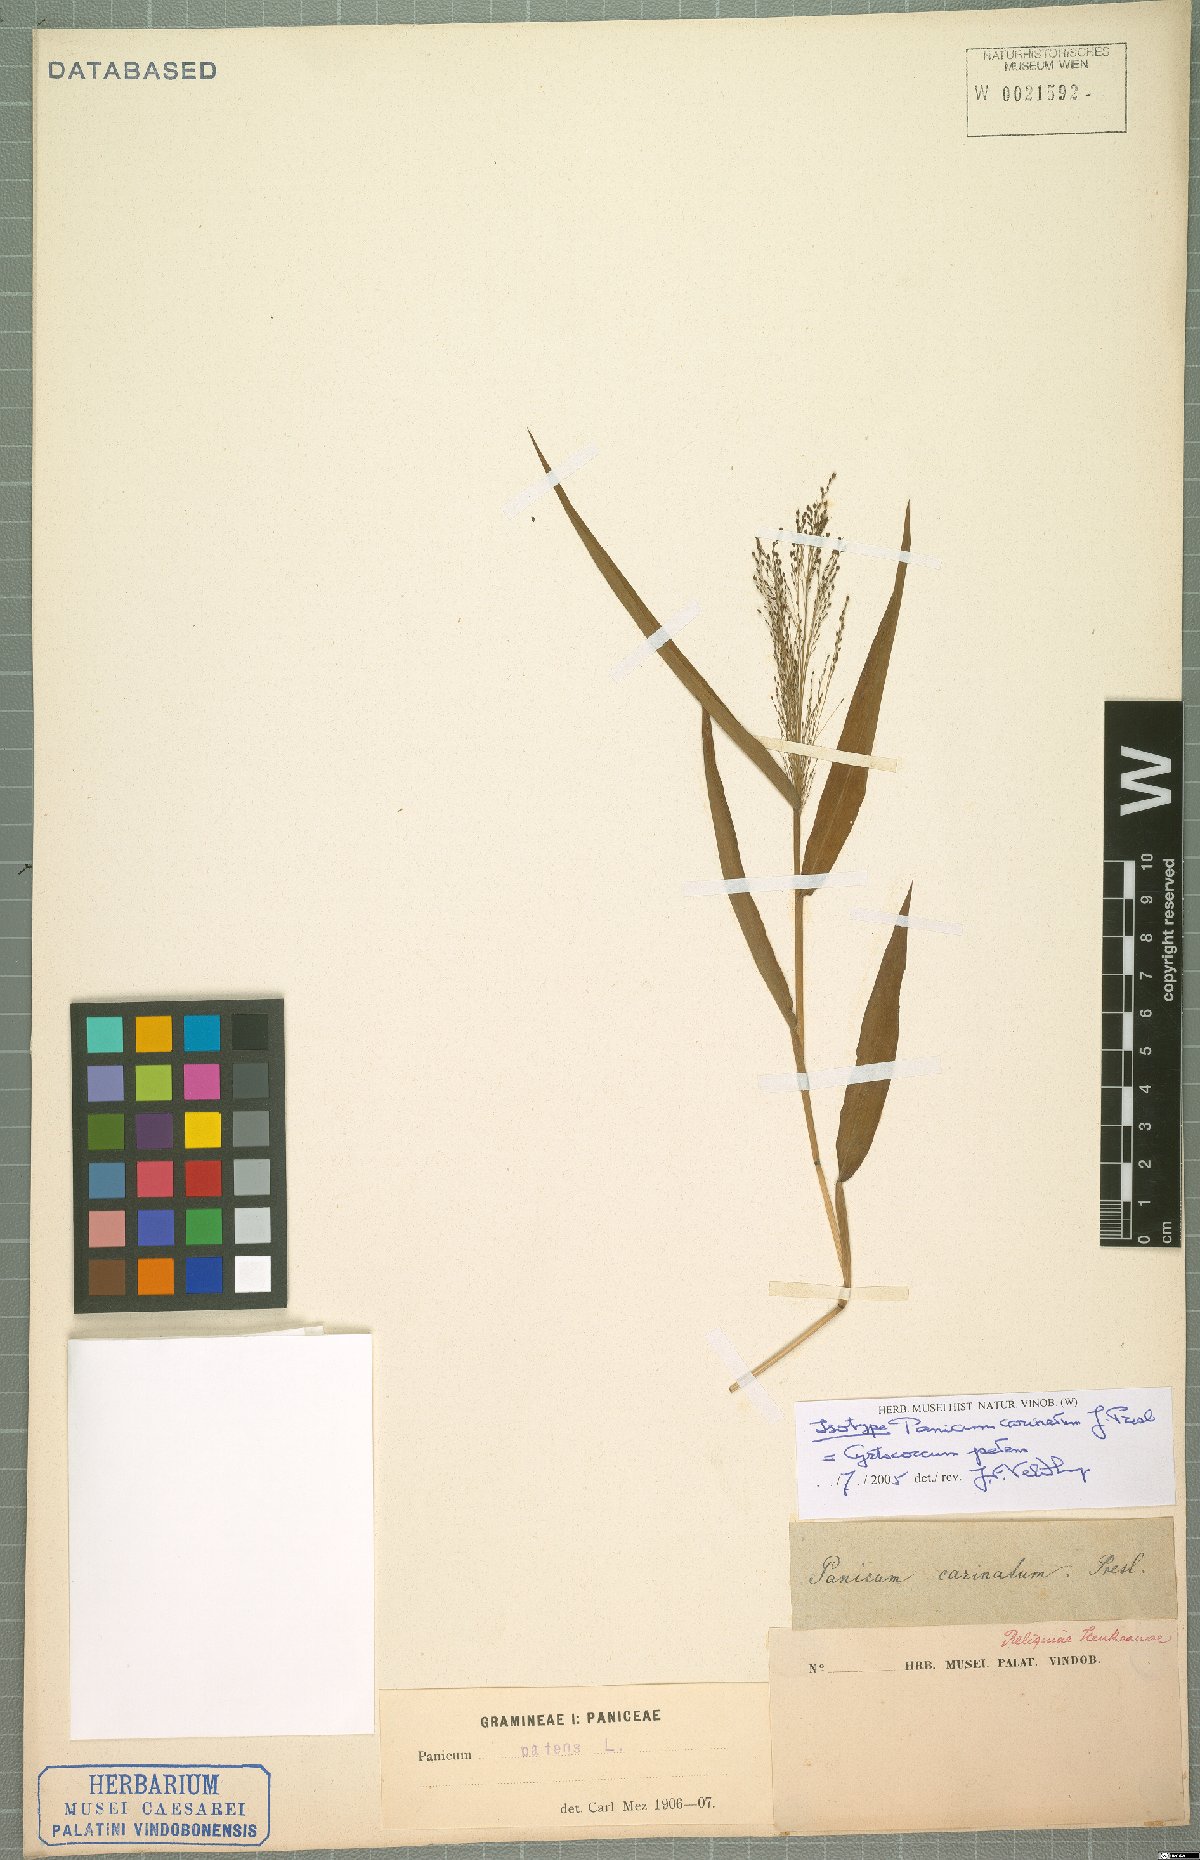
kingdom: Plantae
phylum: Tracheophyta
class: Liliopsida
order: Poales
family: Poaceae
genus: Cyrtococcum
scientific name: Cyrtococcum patens
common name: Broad-leaved bowgrass
